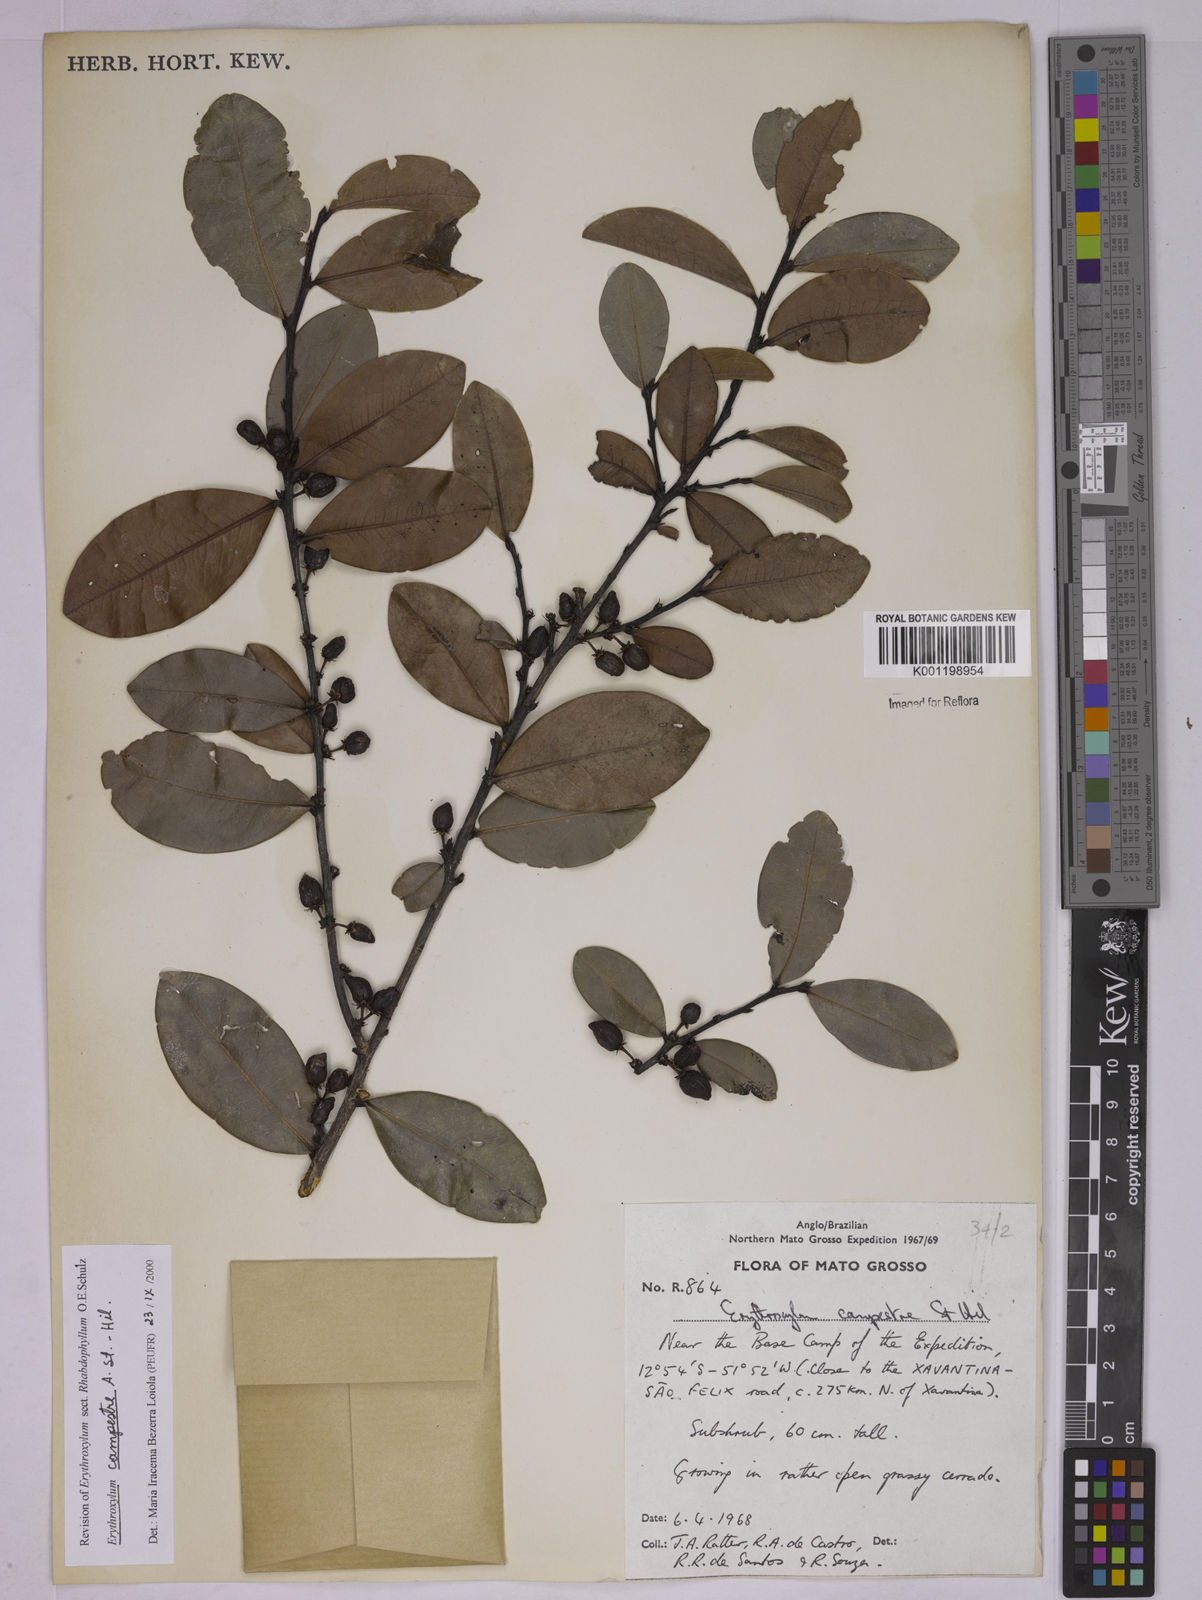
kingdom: Plantae
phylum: Tracheophyta
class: Magnoliopsida
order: Malpighiales
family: Erythroxylaceae
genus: Erythroxylum
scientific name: Erythroxylum campestre
